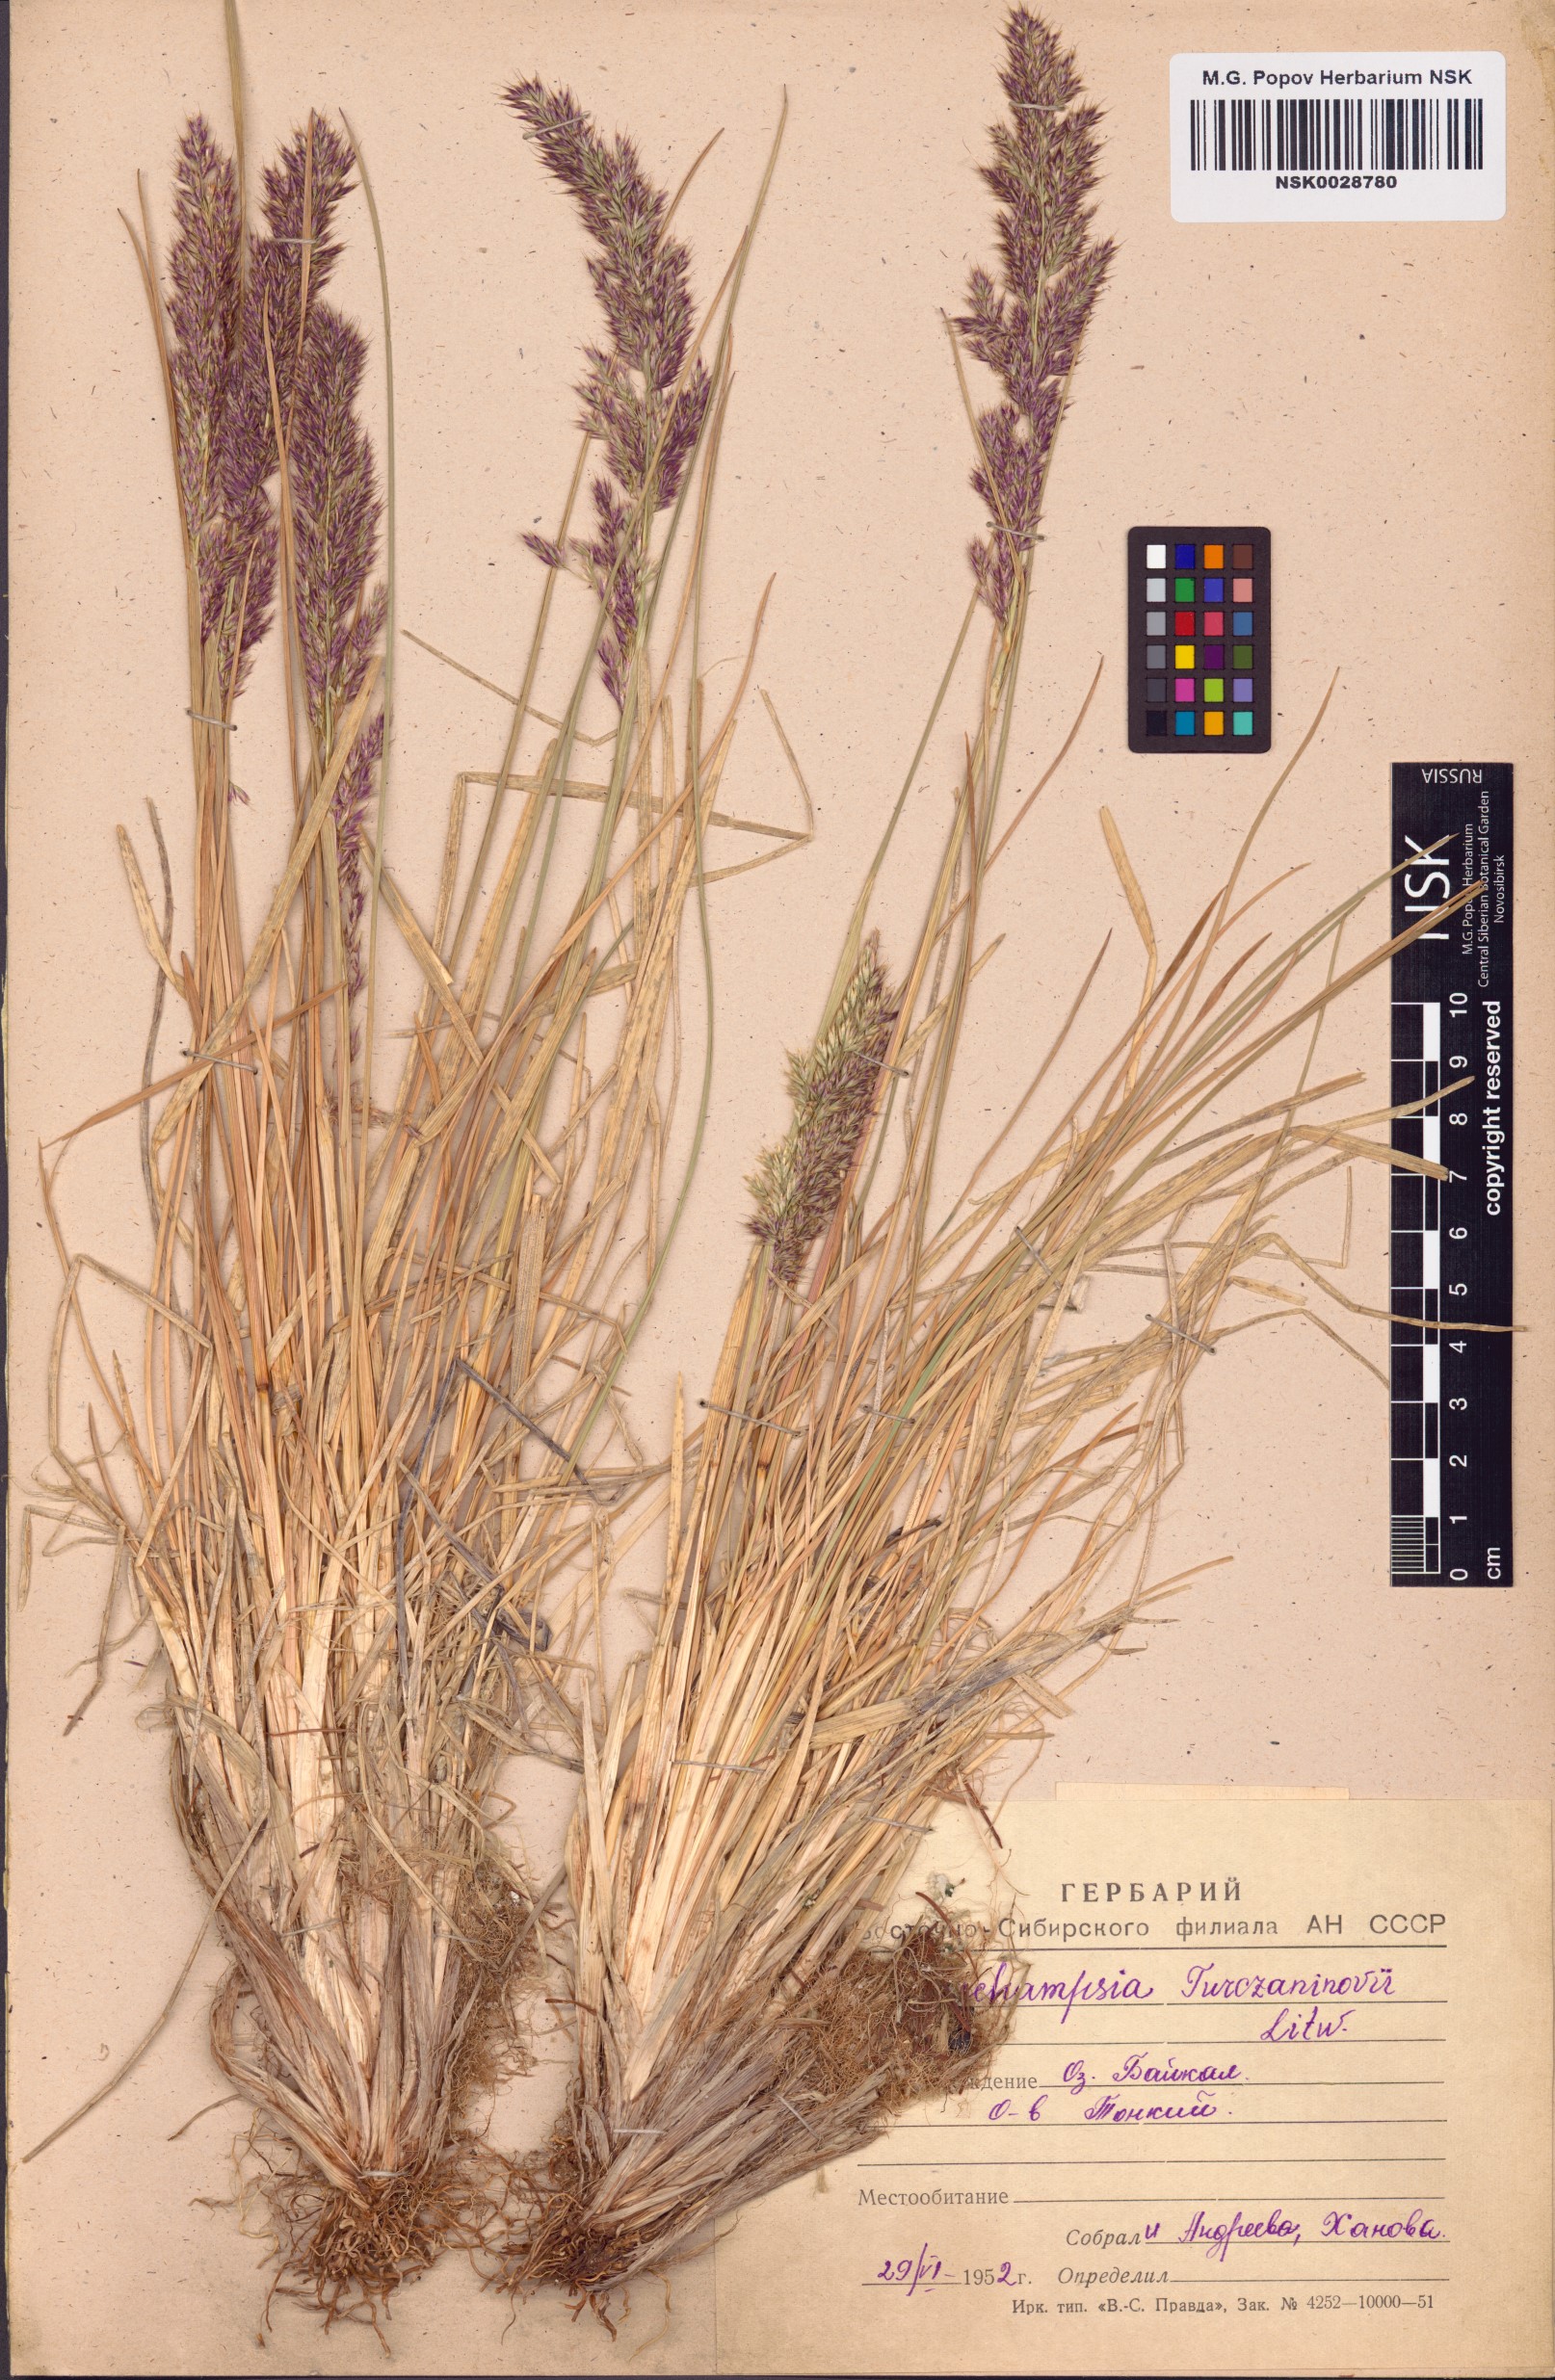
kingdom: Plantae
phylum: Tracheophyta
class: Liliopsida
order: Poales
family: Poaceae
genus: Deschampsia
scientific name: Deschampsia cespitosa
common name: Tufted hair-grass
